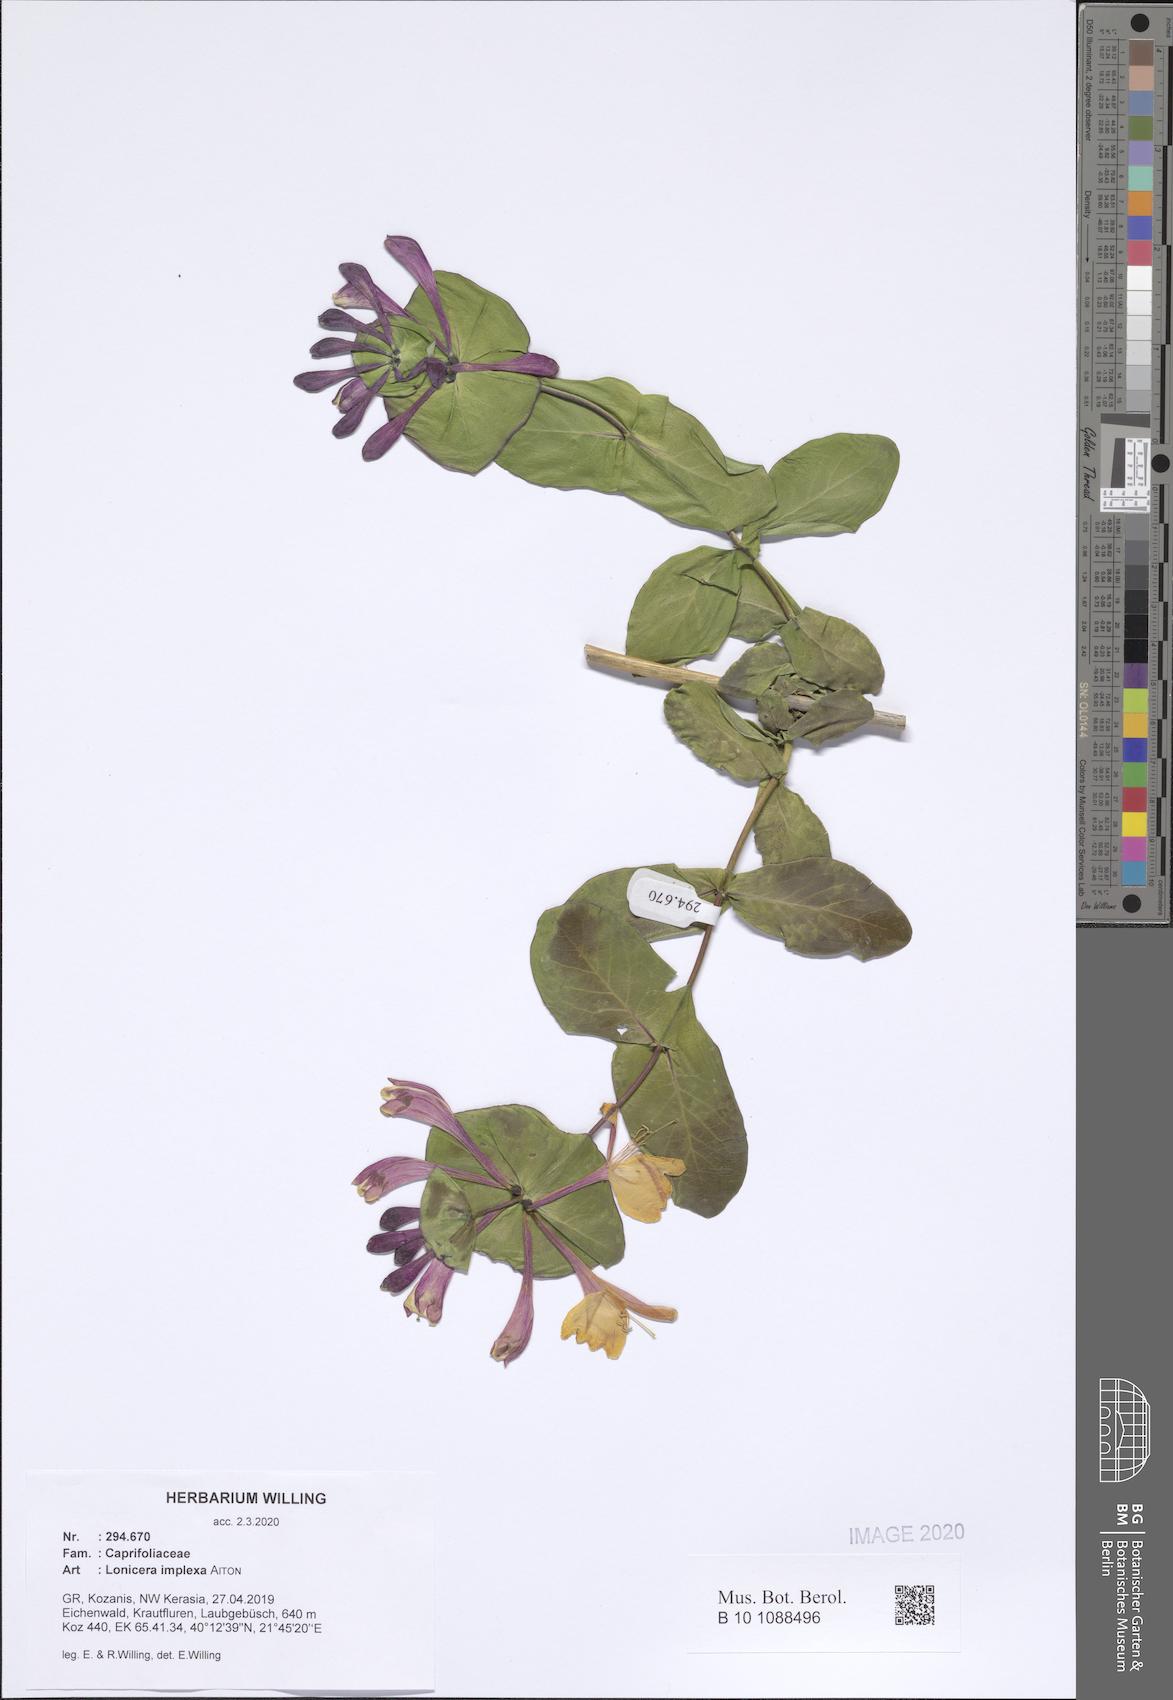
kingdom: Plantae
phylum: Tracheophyta
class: Magnoliopsida
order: Dipsacales
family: Caprifoliaceae
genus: Lonicera
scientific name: Lonicera implexa
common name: Minorca honeysuckle
